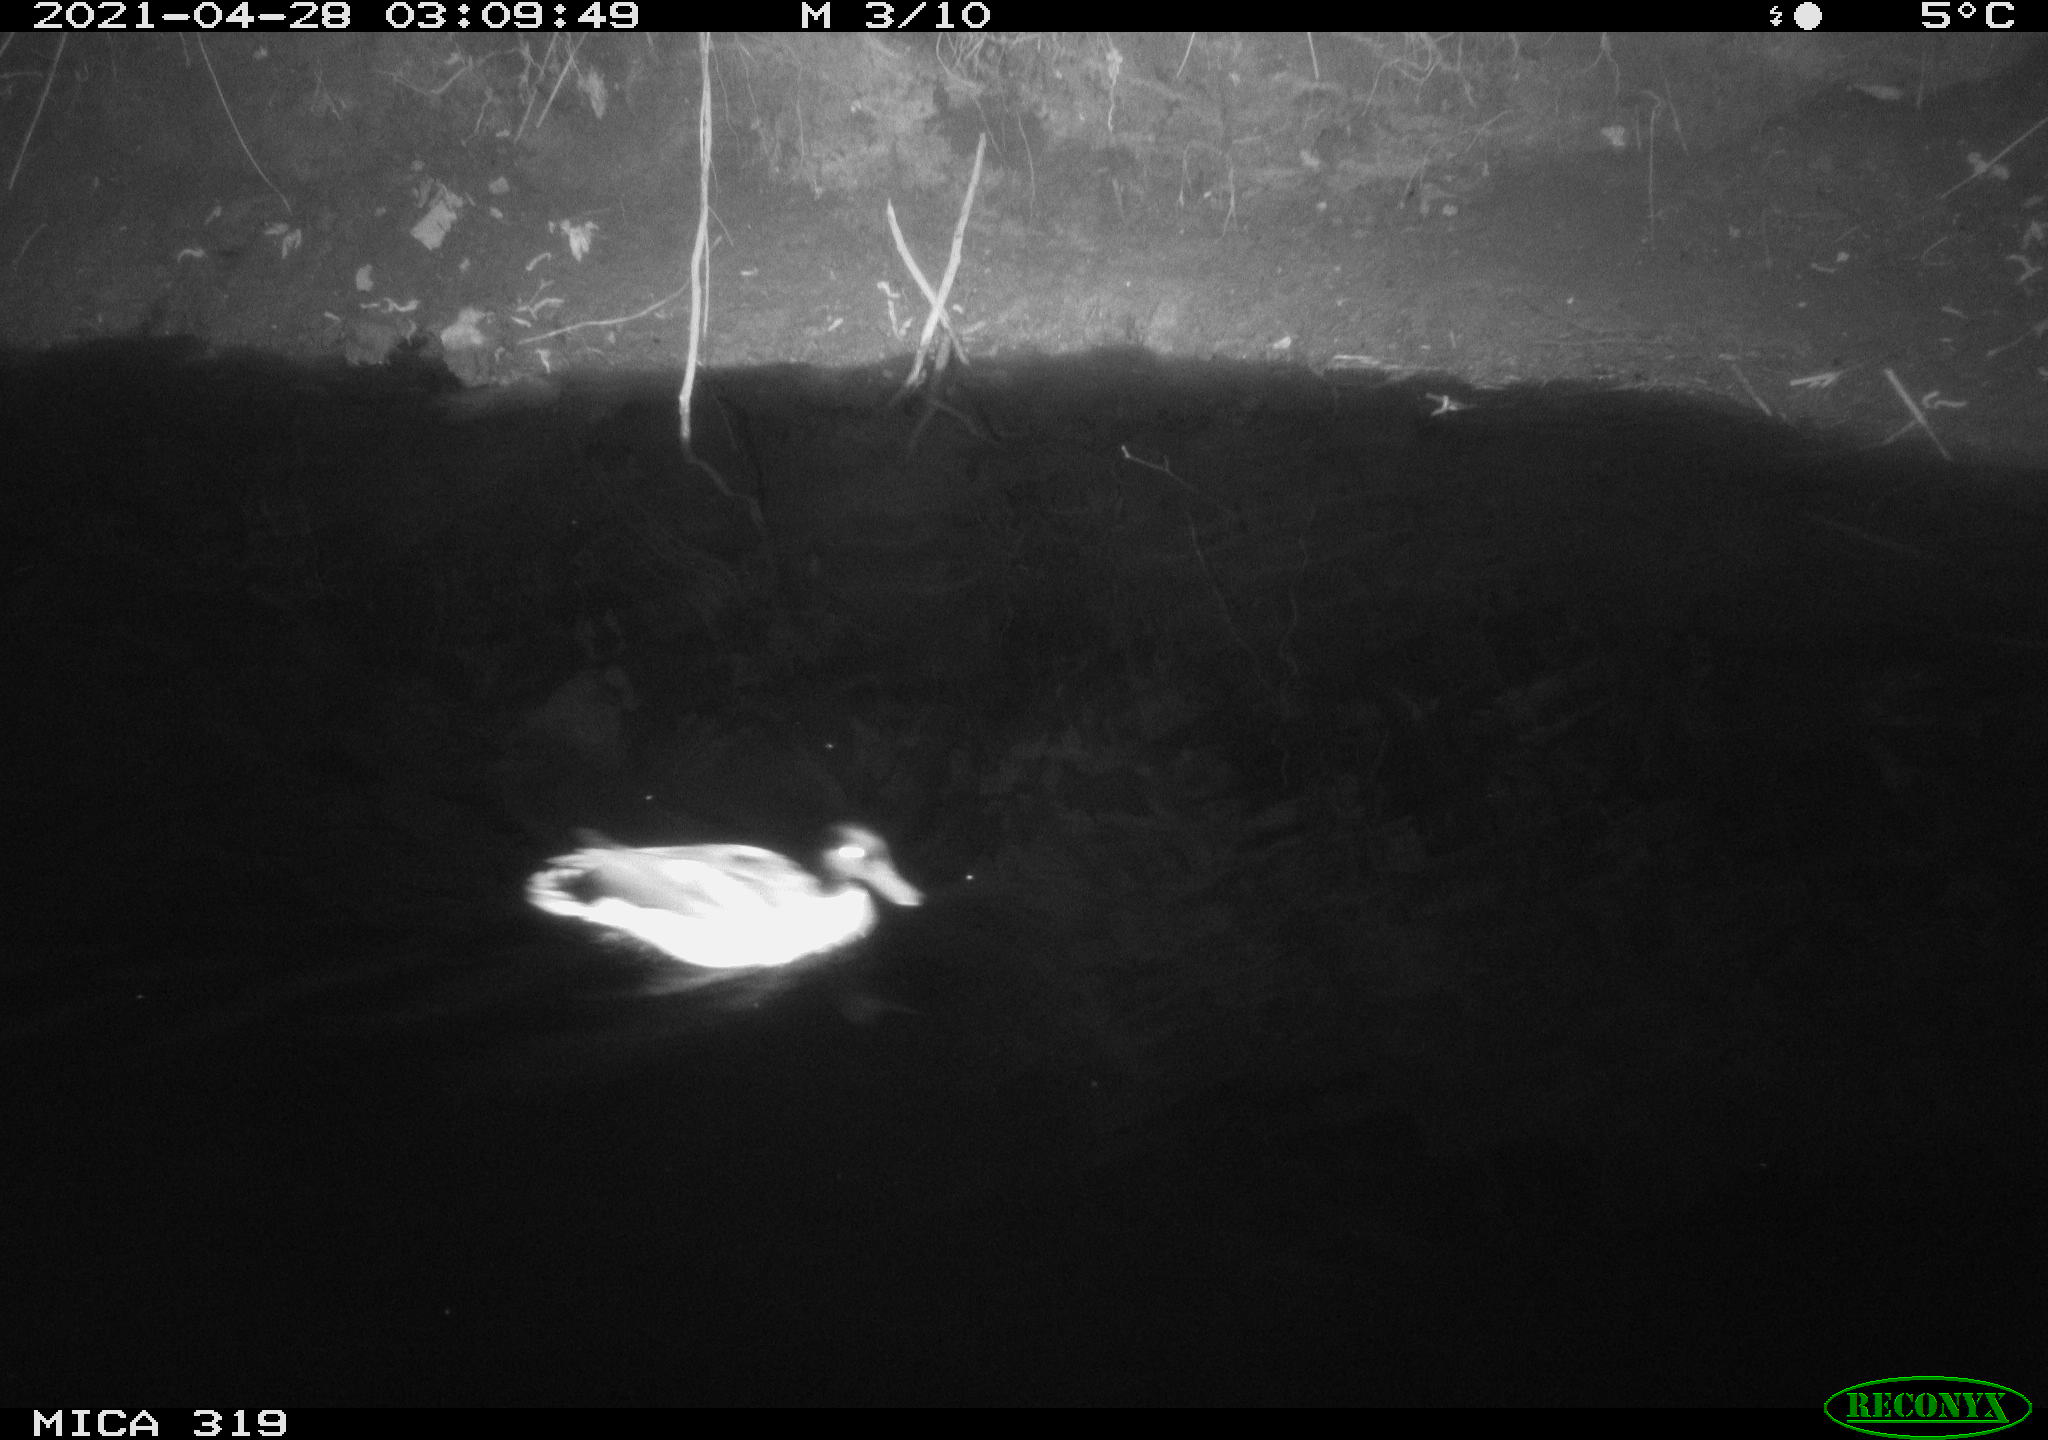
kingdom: Animalia
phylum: Chordata
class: Aves
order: Anseriformes
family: Anatidae
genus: Anas
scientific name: Anas platyrhynchos
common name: Mallard
